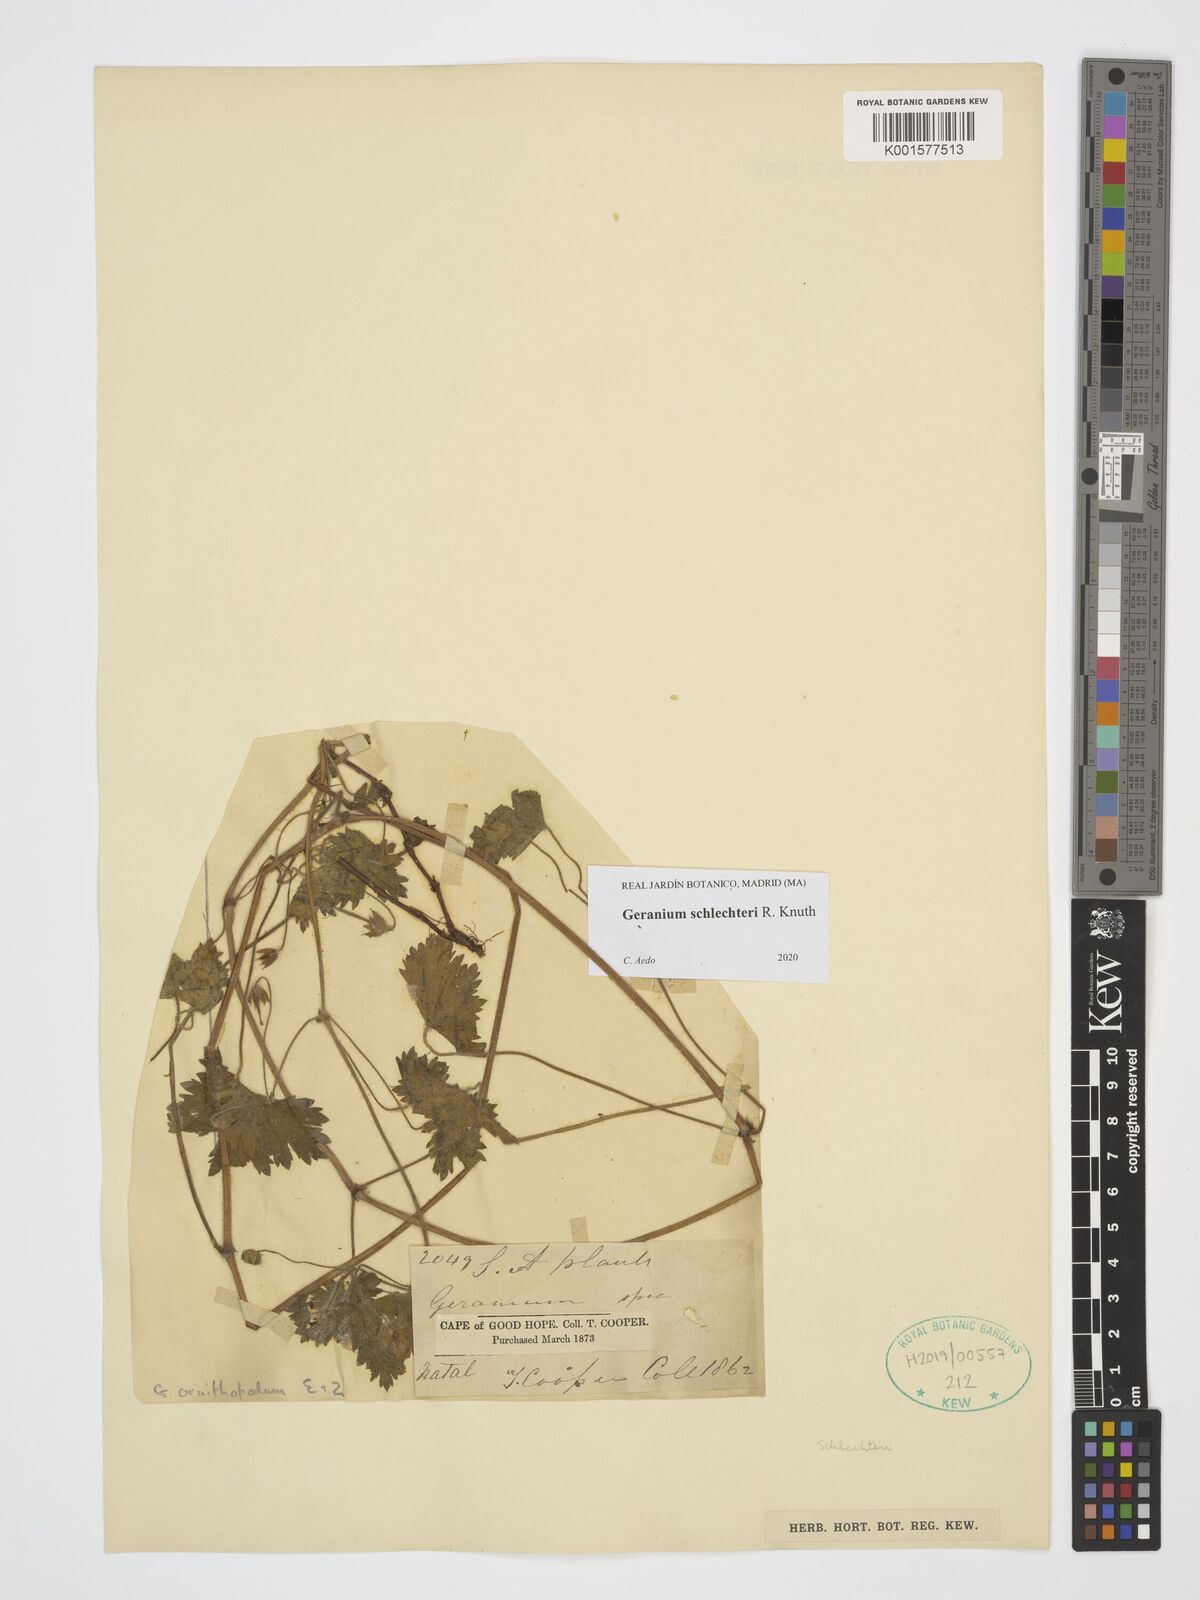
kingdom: Plantae
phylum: Tracheophyta
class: Magnoliopsida
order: Geraniales
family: Geraniaceae
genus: Geranium
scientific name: Geranium schlechteri
